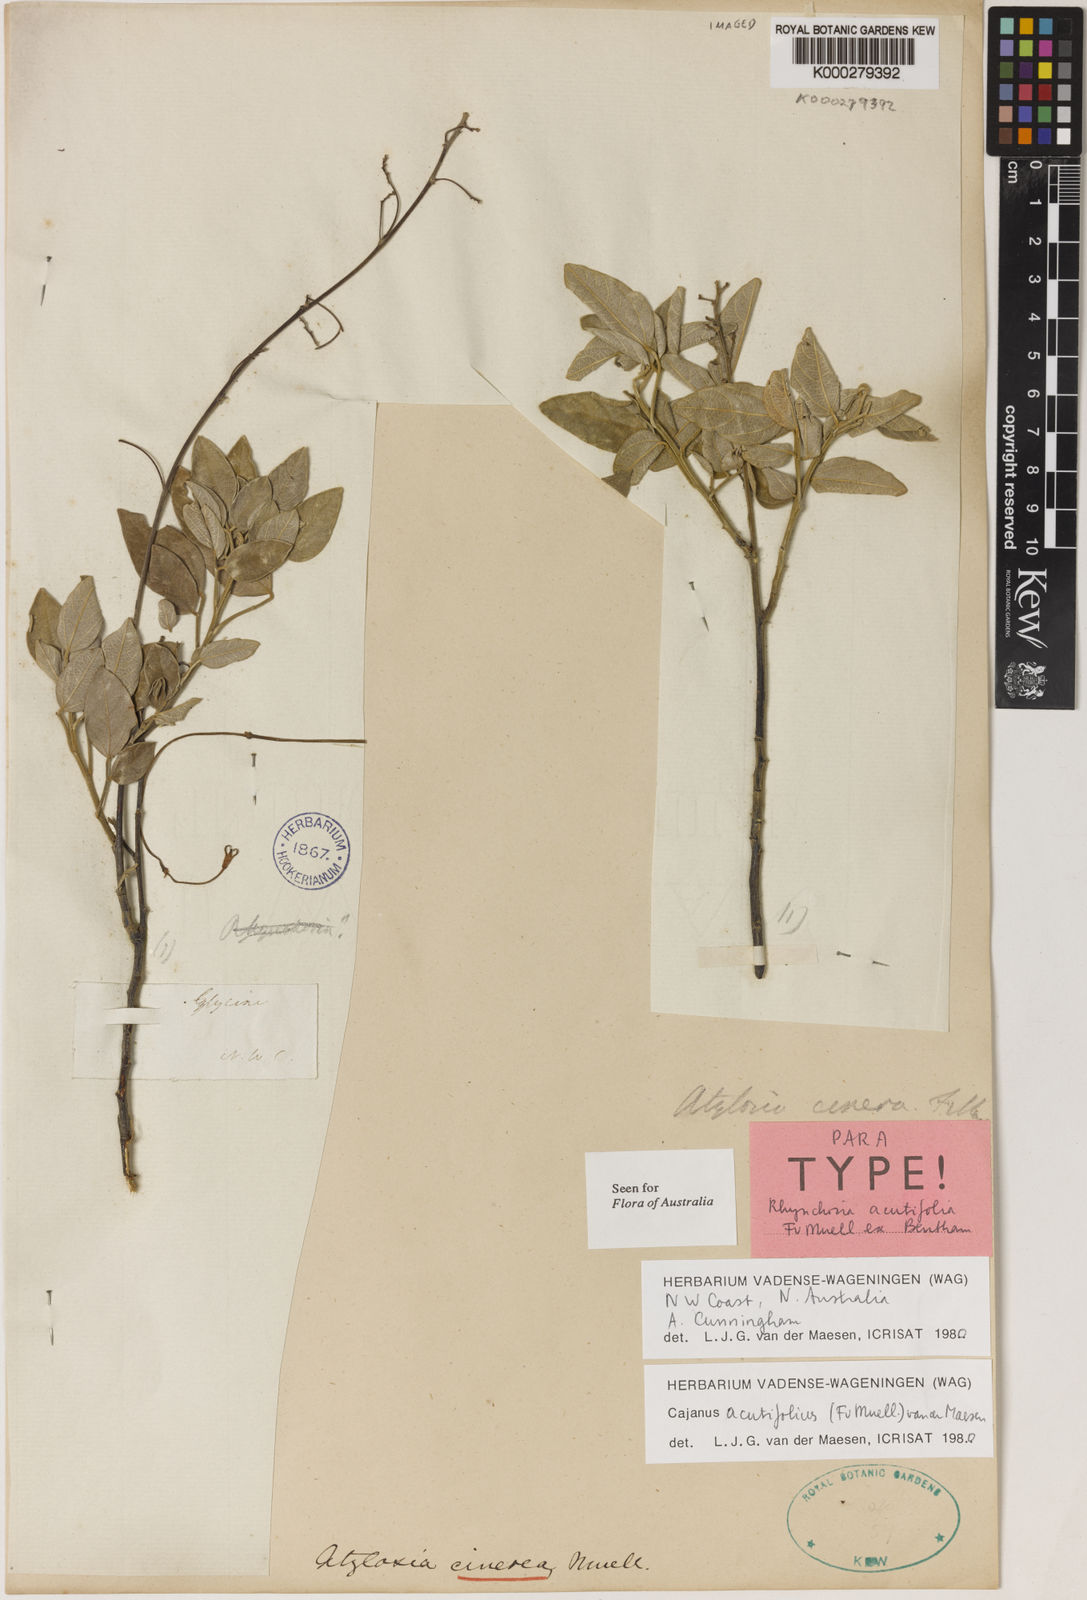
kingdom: Plantae
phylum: Tracheophyta
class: Magnoliopsida
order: Fabales
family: Fabaceae
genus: Cajanus
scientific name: Cajanus acutifolius
